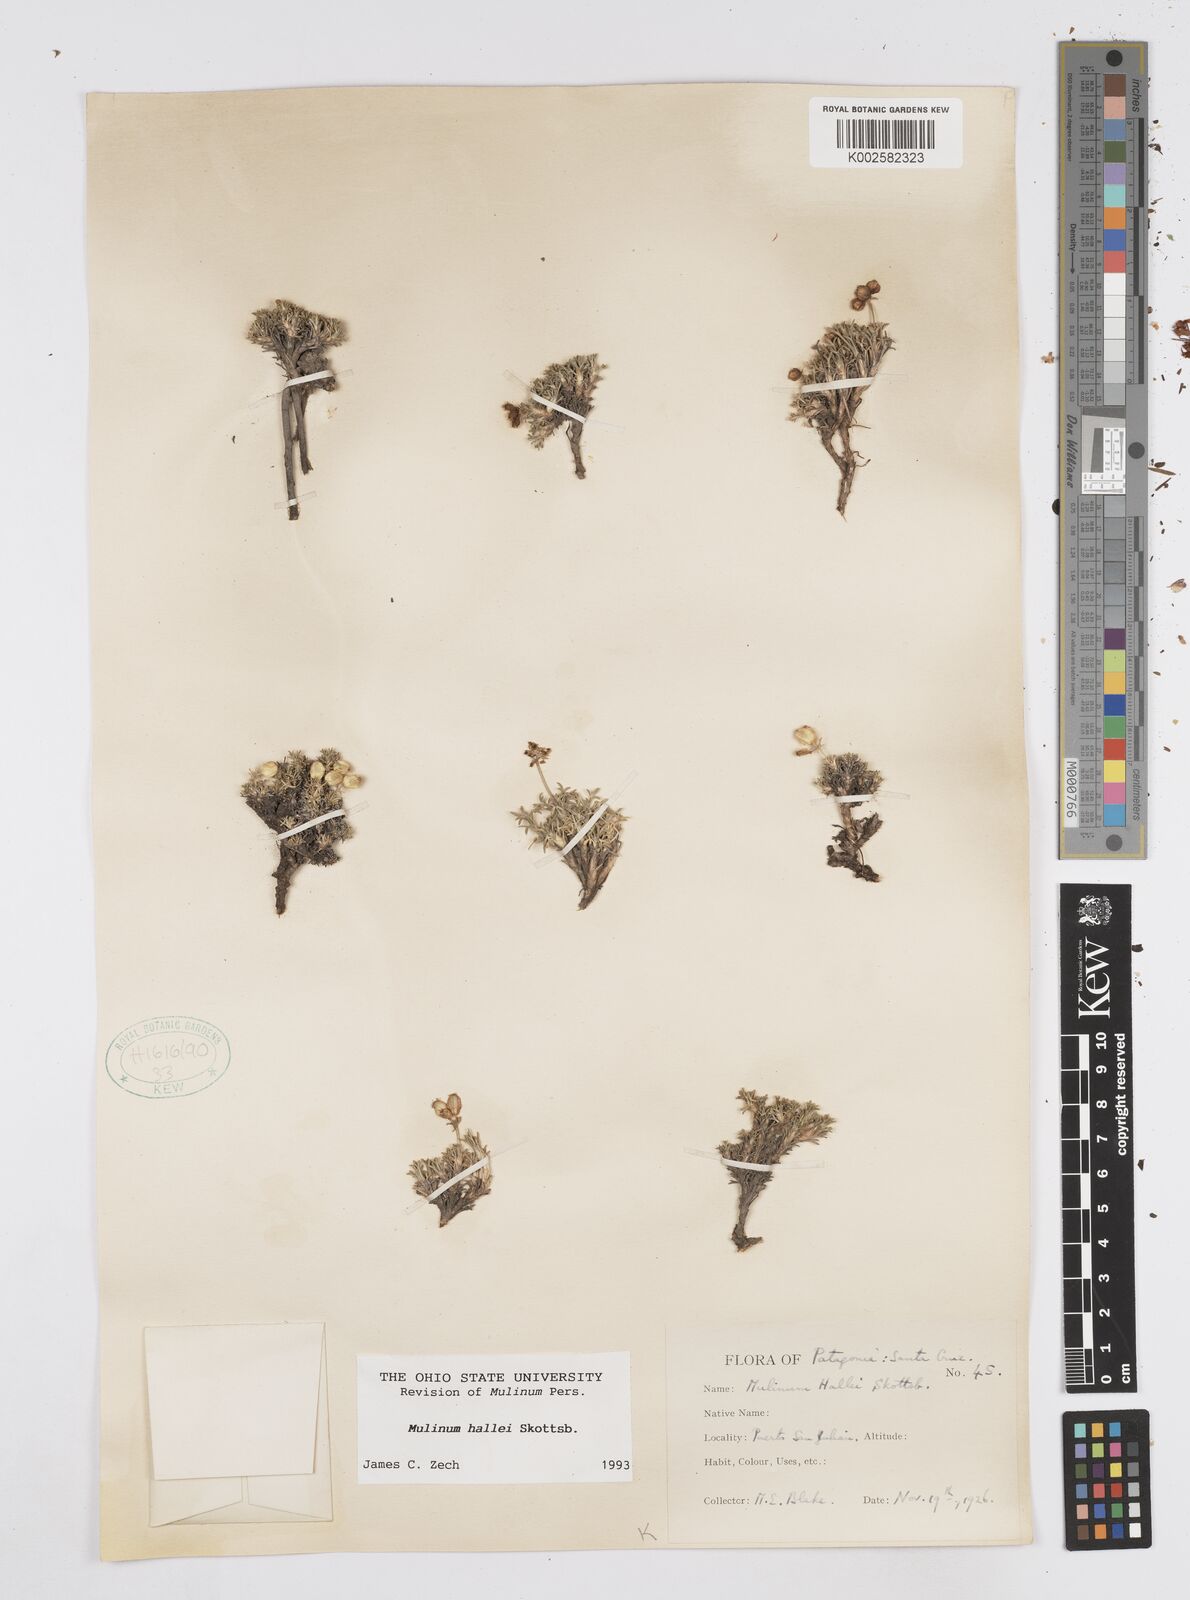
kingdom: Plantae
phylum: Tracheophyta
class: Magnoliopsida
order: Apiales
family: Apiaceae
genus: Azorella
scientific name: Azorella hallei
